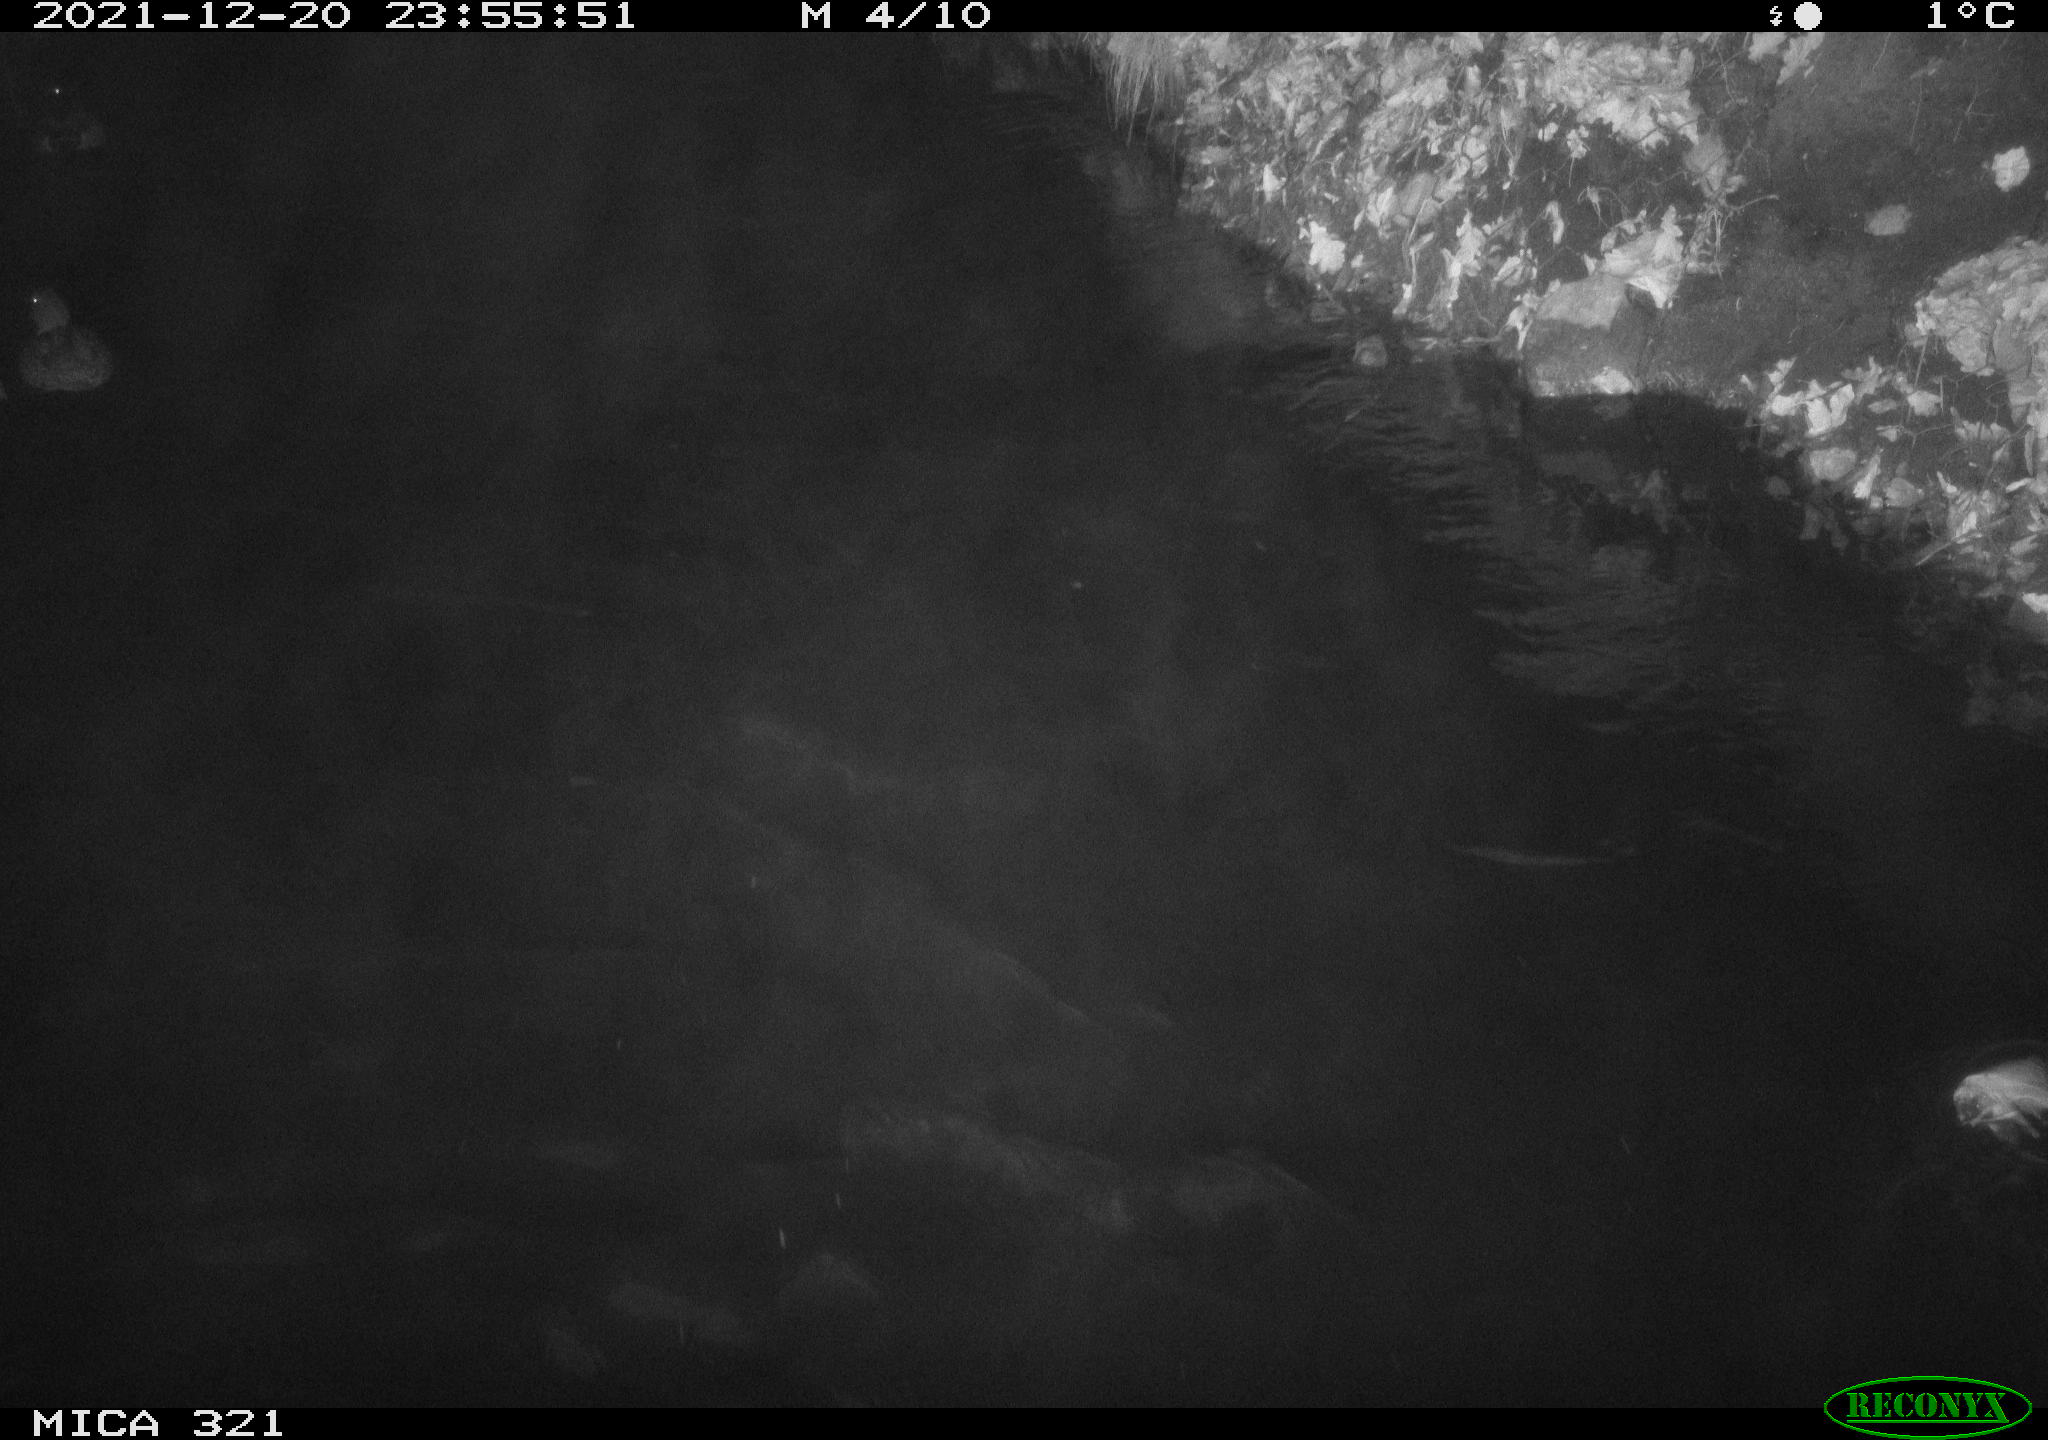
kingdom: Animalia
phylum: Chordata
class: Aves
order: Anseriformes
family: Anatidae
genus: Anas
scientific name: Anas
